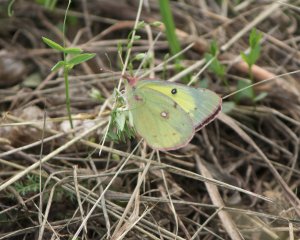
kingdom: Animalia
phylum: Arthropoda
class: Insecta
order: Lepidoptera
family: Pieridae
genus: Colias
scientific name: Colias philodice
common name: Clouded Sulphur
